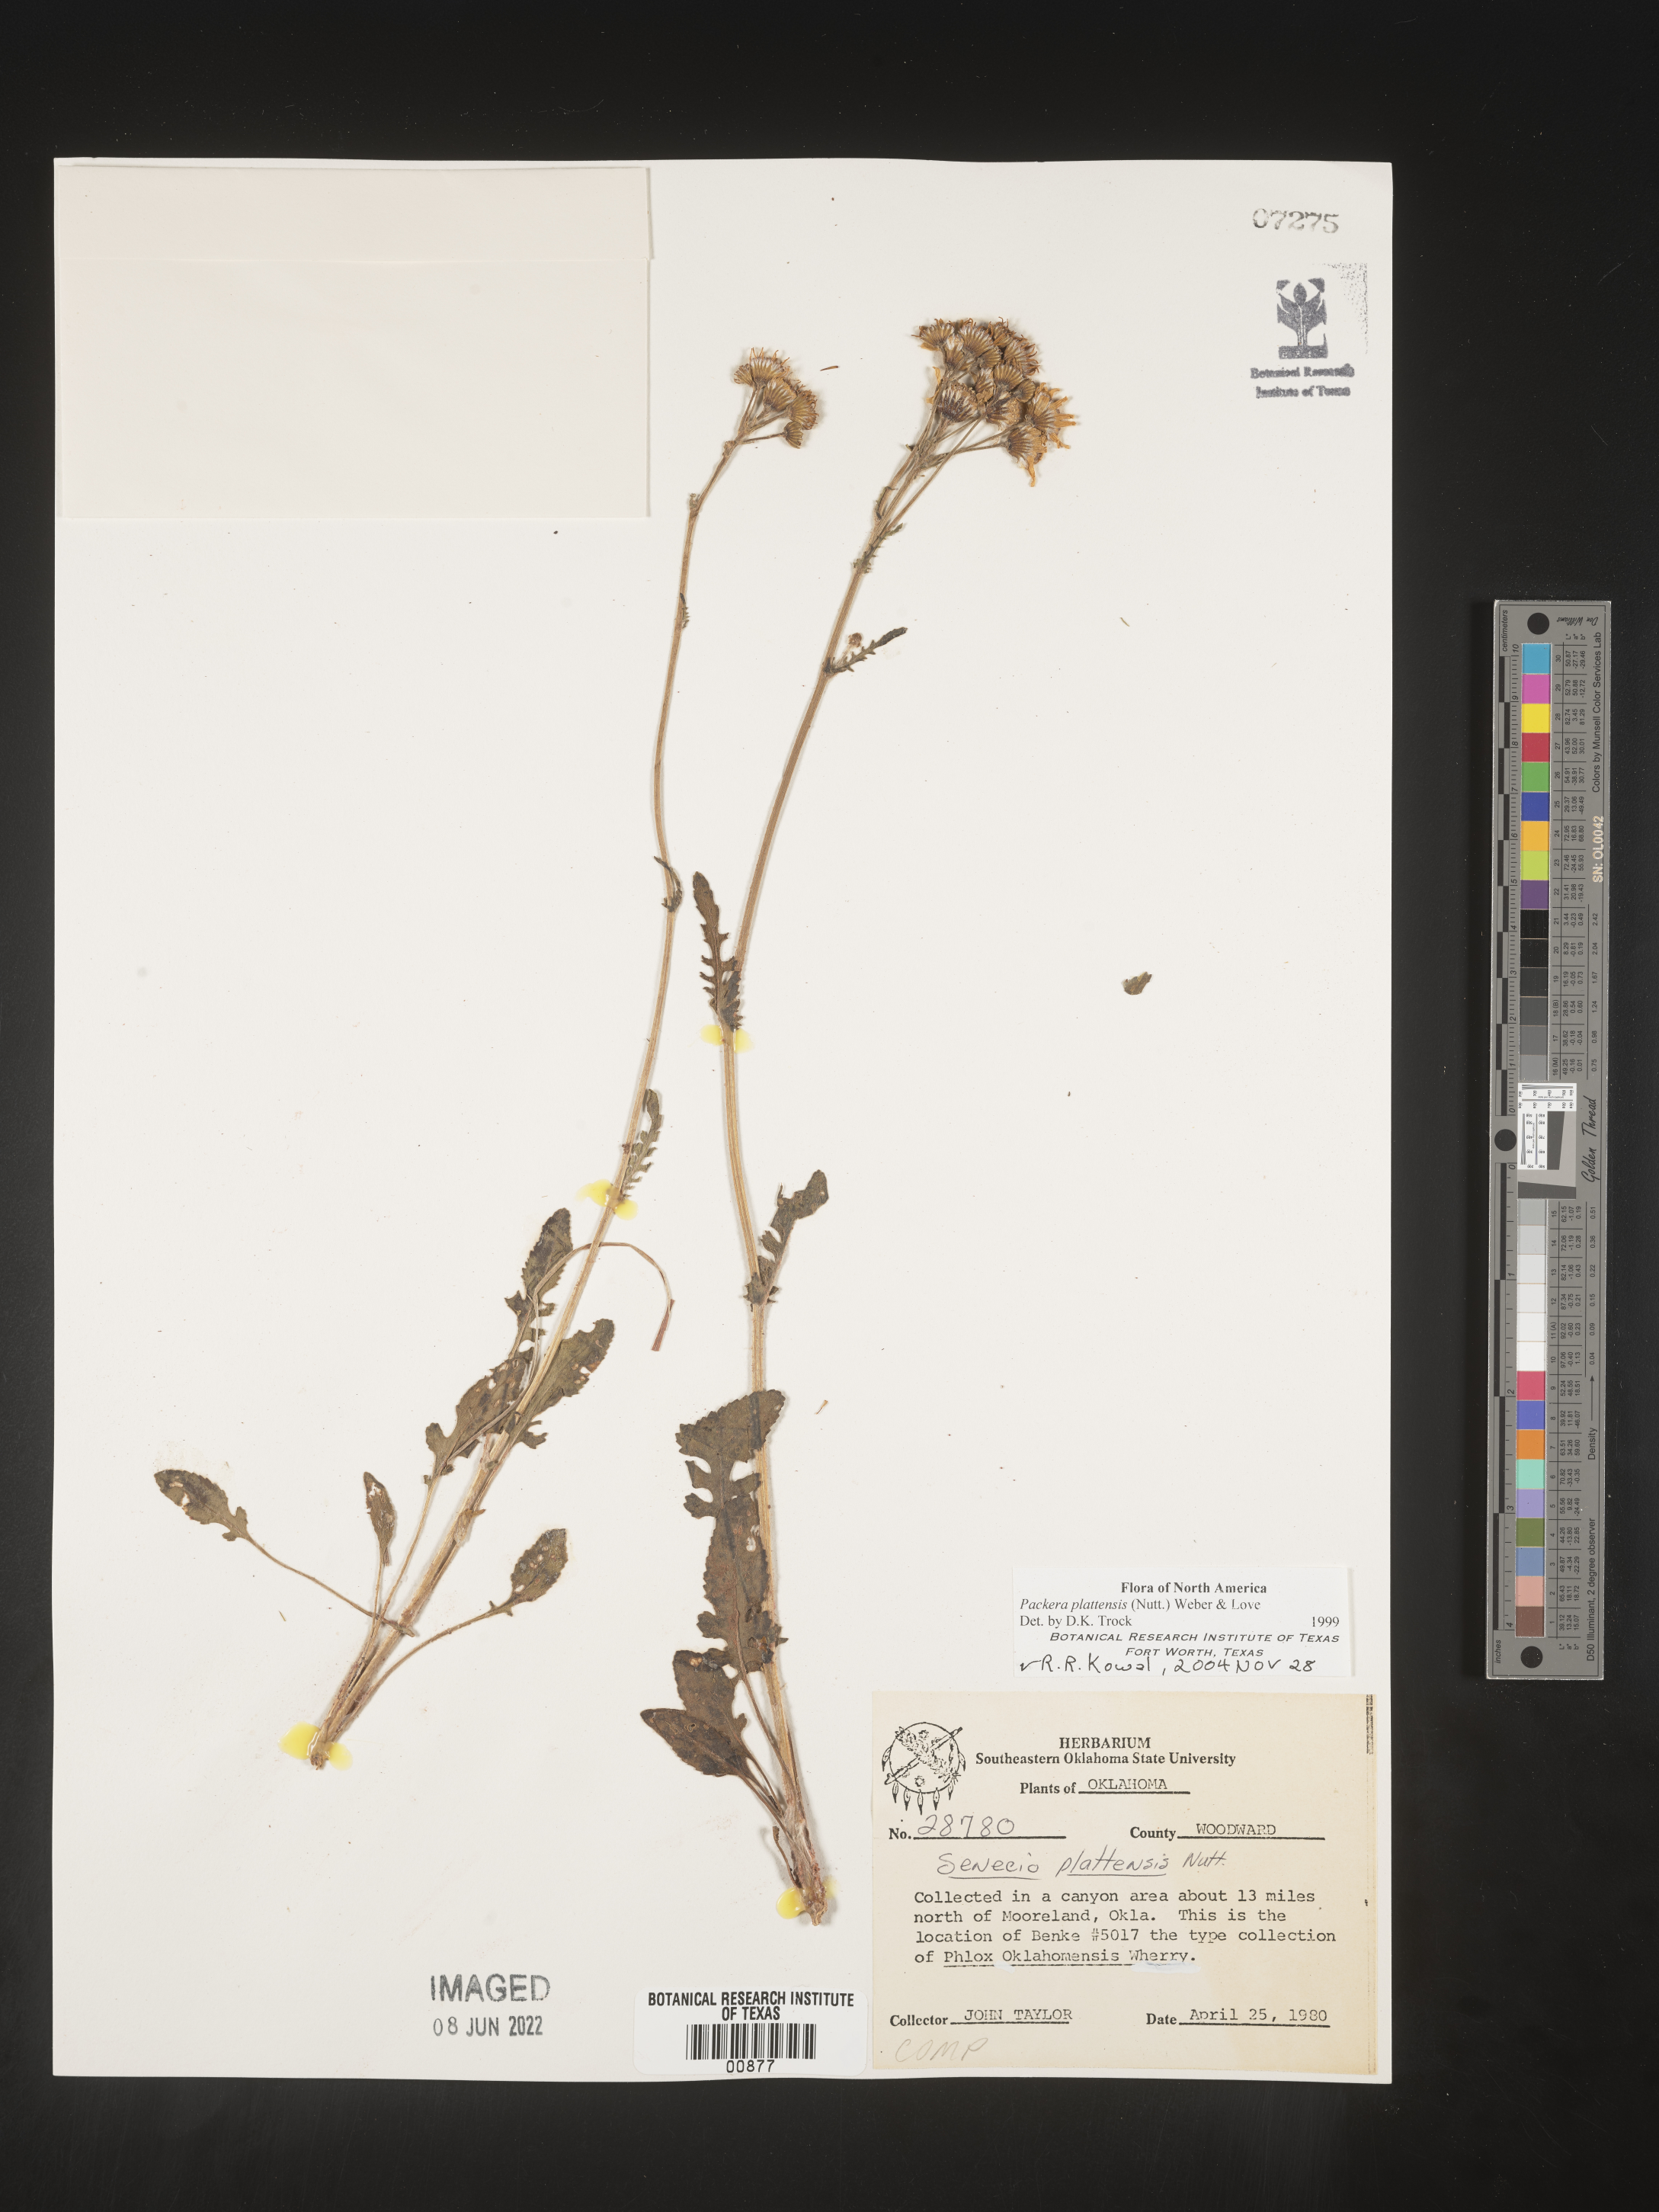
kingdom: Plantae
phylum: Tracheophyta
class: Magnoliopsida
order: Asterales
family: Asteraceae
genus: Packera
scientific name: Packera plattensis
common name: Prairie groundsel
